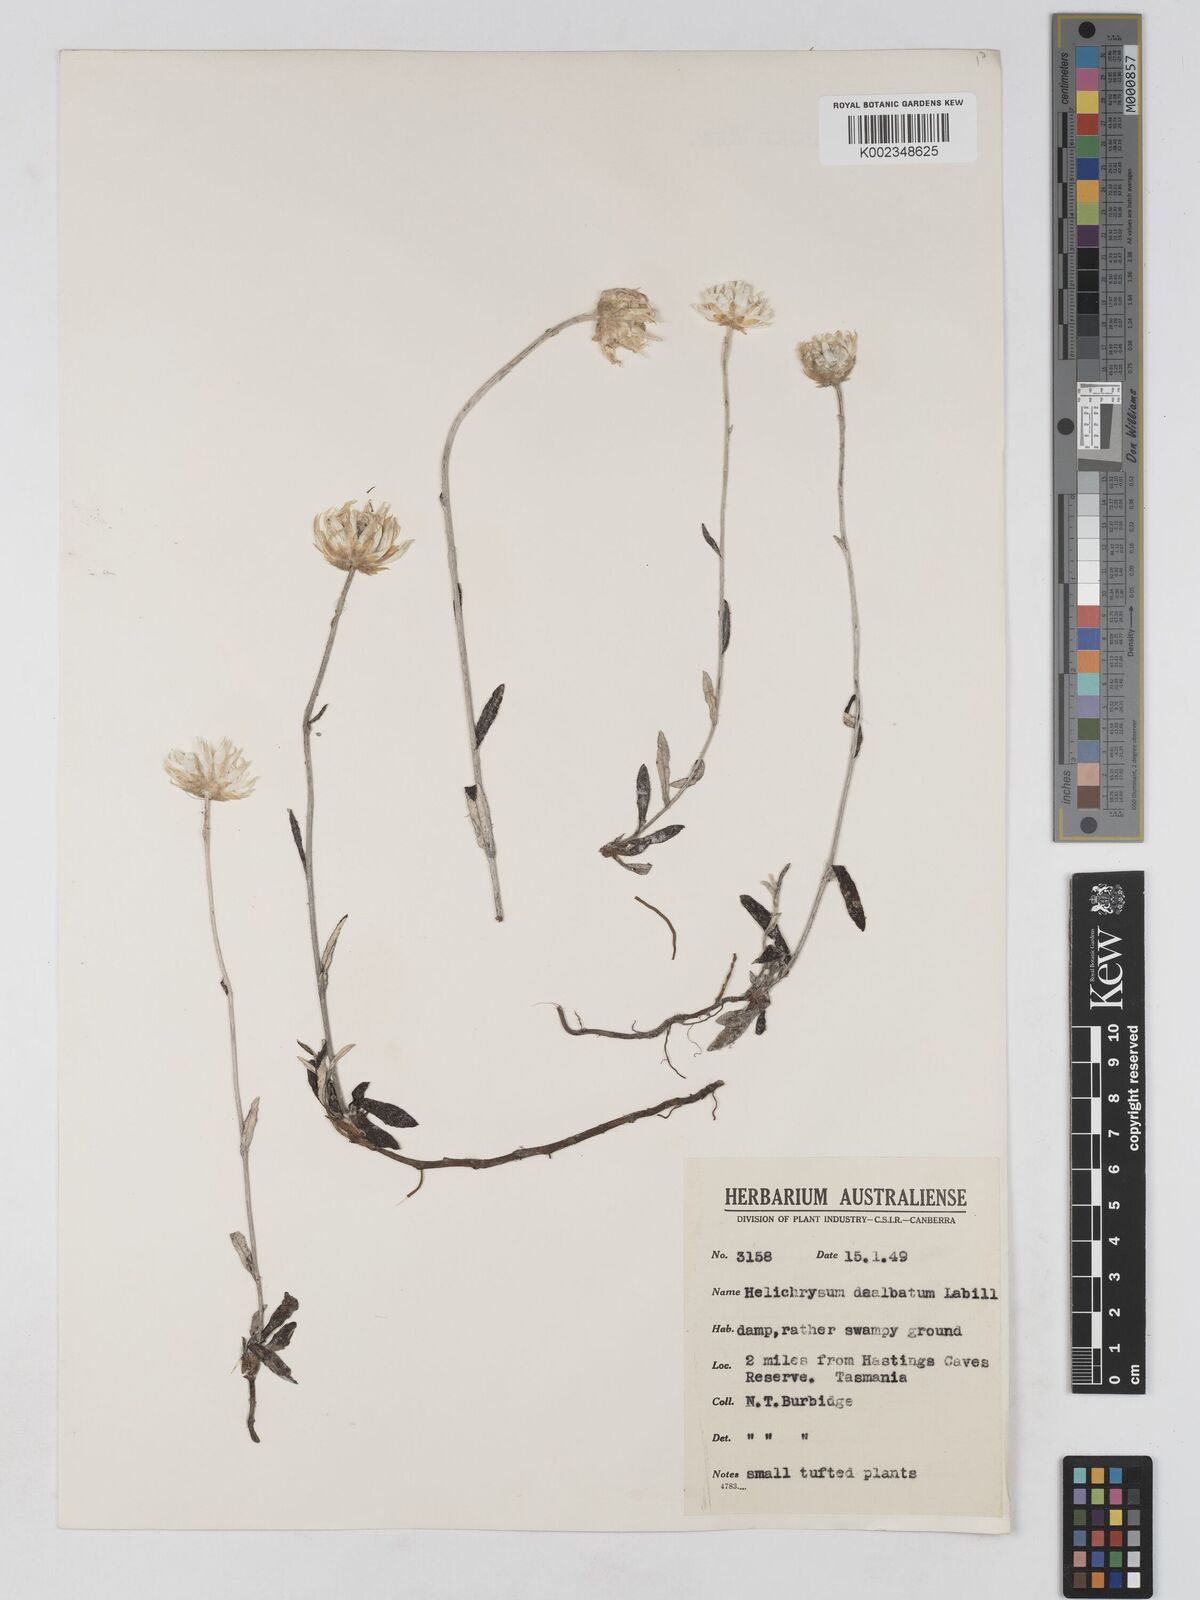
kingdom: Plantae
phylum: Tracheophyta
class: Magnoliopsida
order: Asterales
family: Asteraceae
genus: Argentipallium
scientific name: Argentipallium dealbatum
